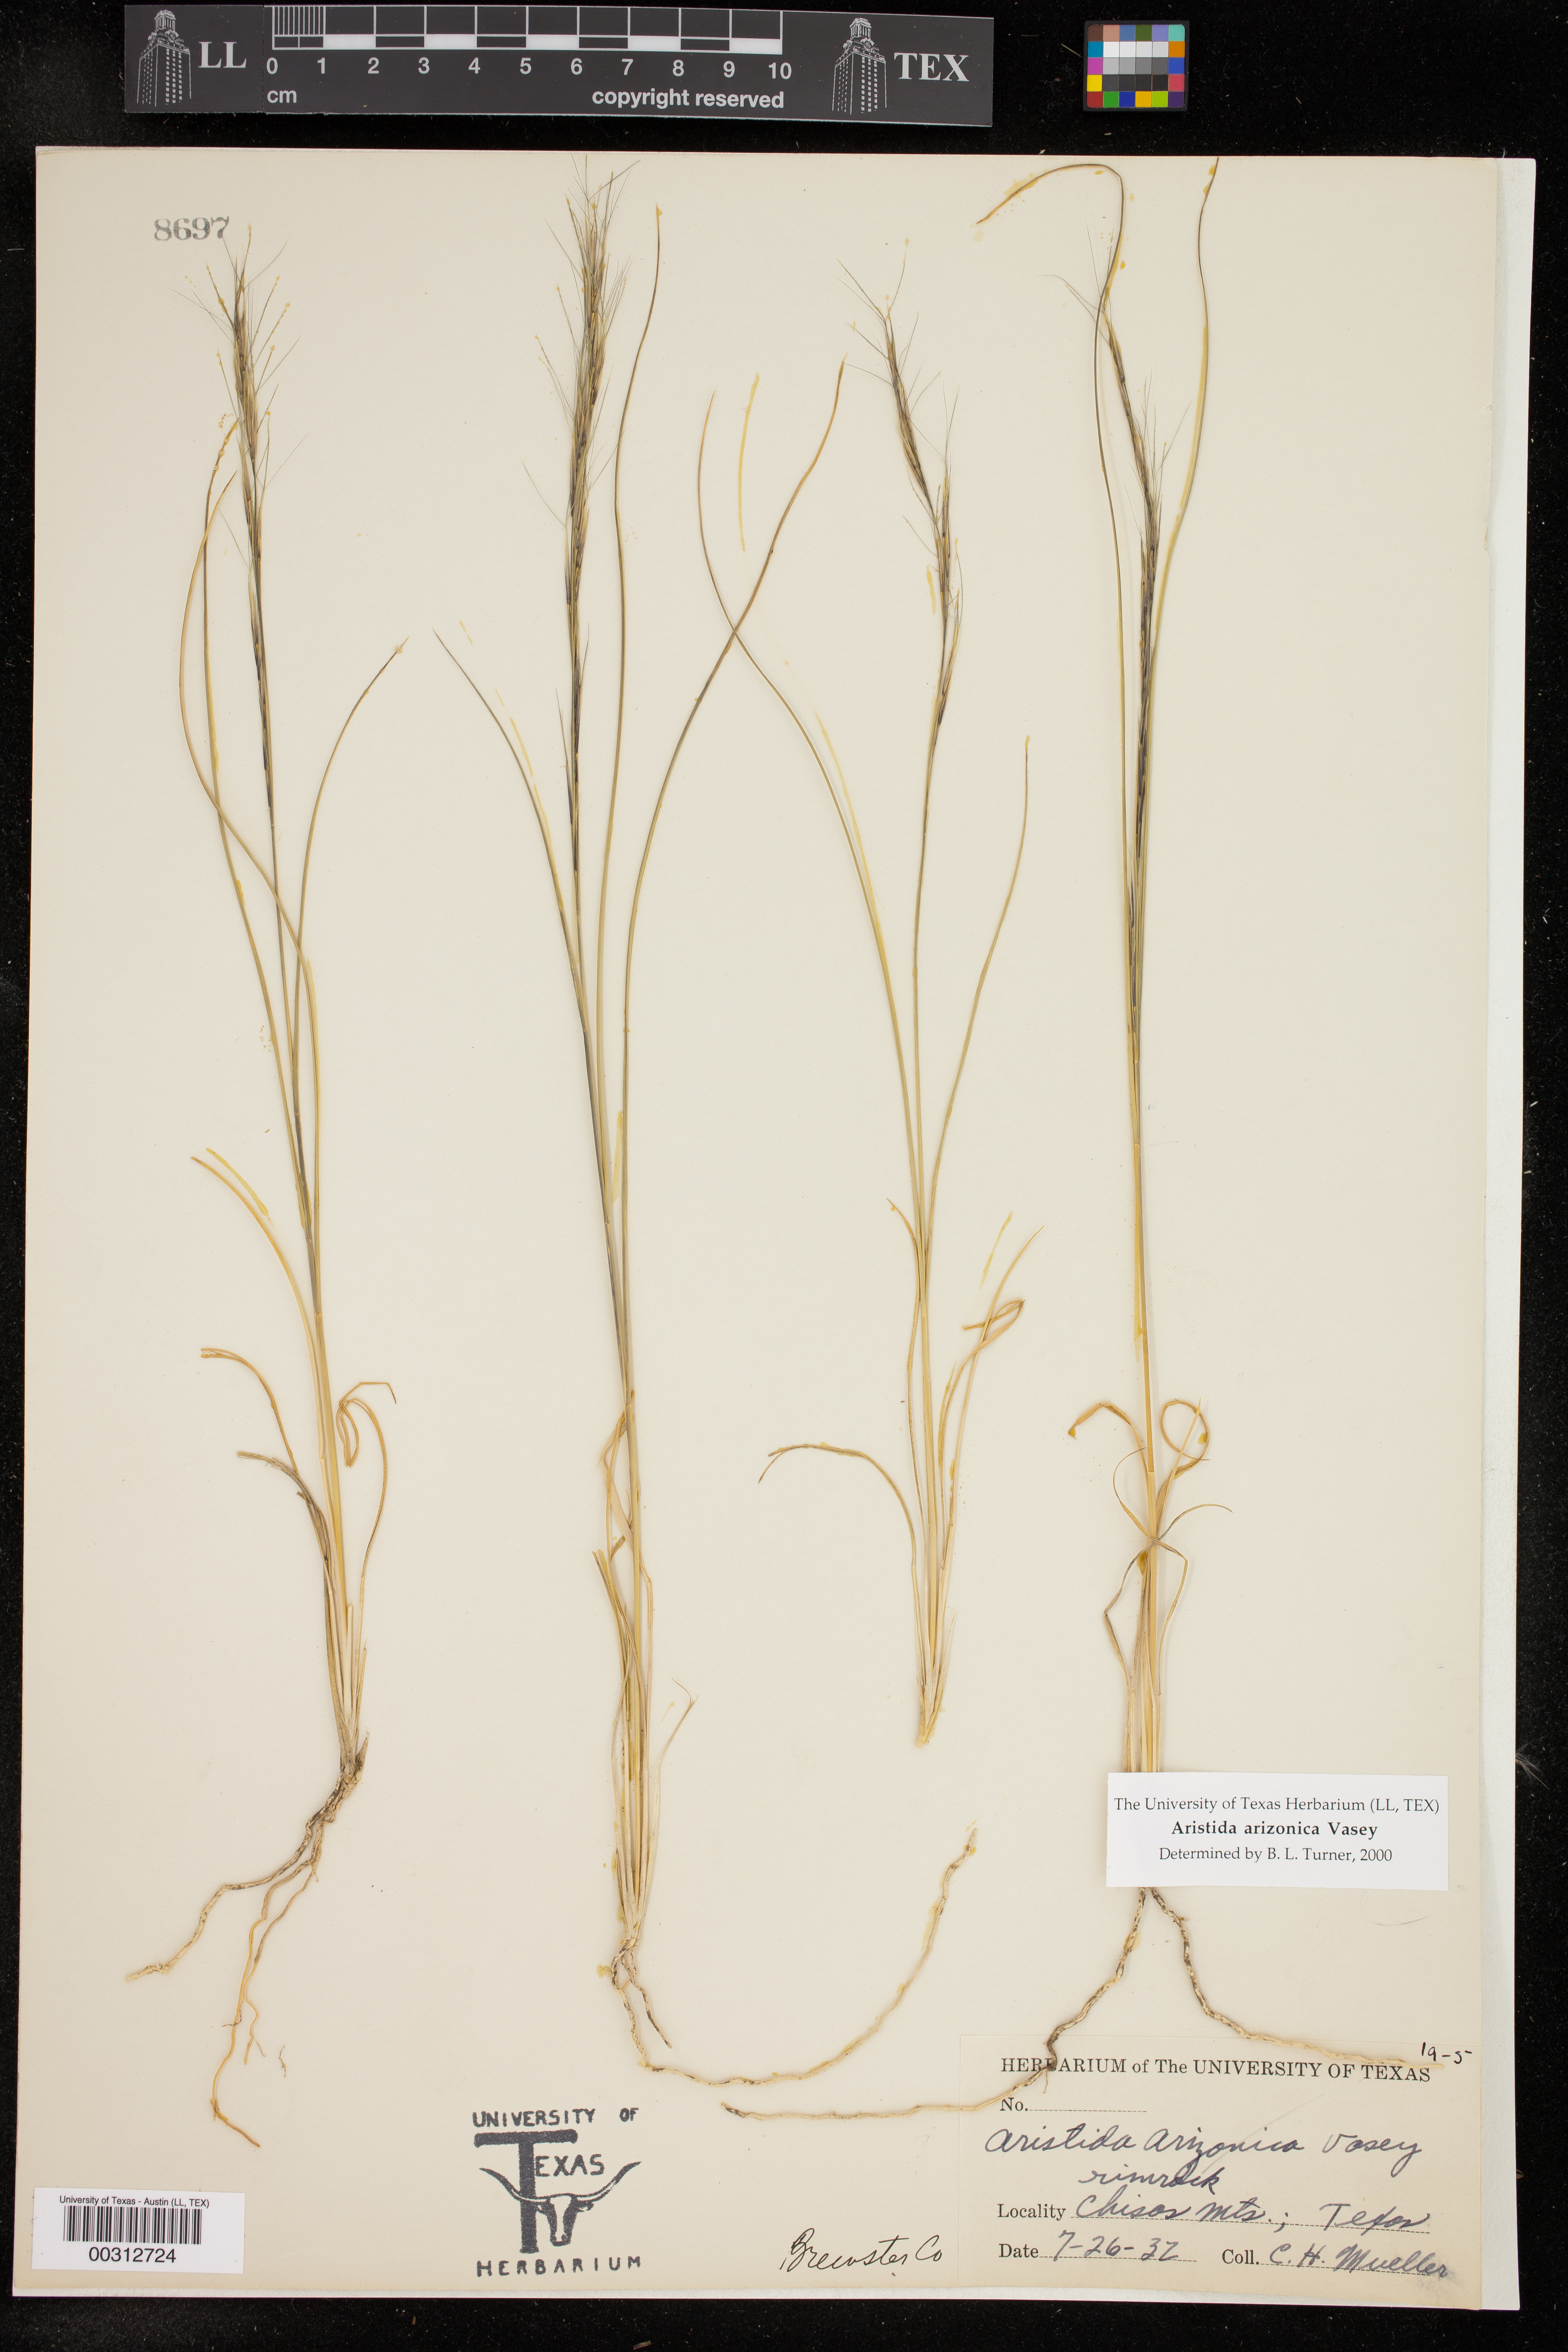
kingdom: Plantae
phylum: Tracheophyta
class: Liliopsida
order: Poales
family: Poaceae
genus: Aristida
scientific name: Aristida arizonica
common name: Arizona threeawn
